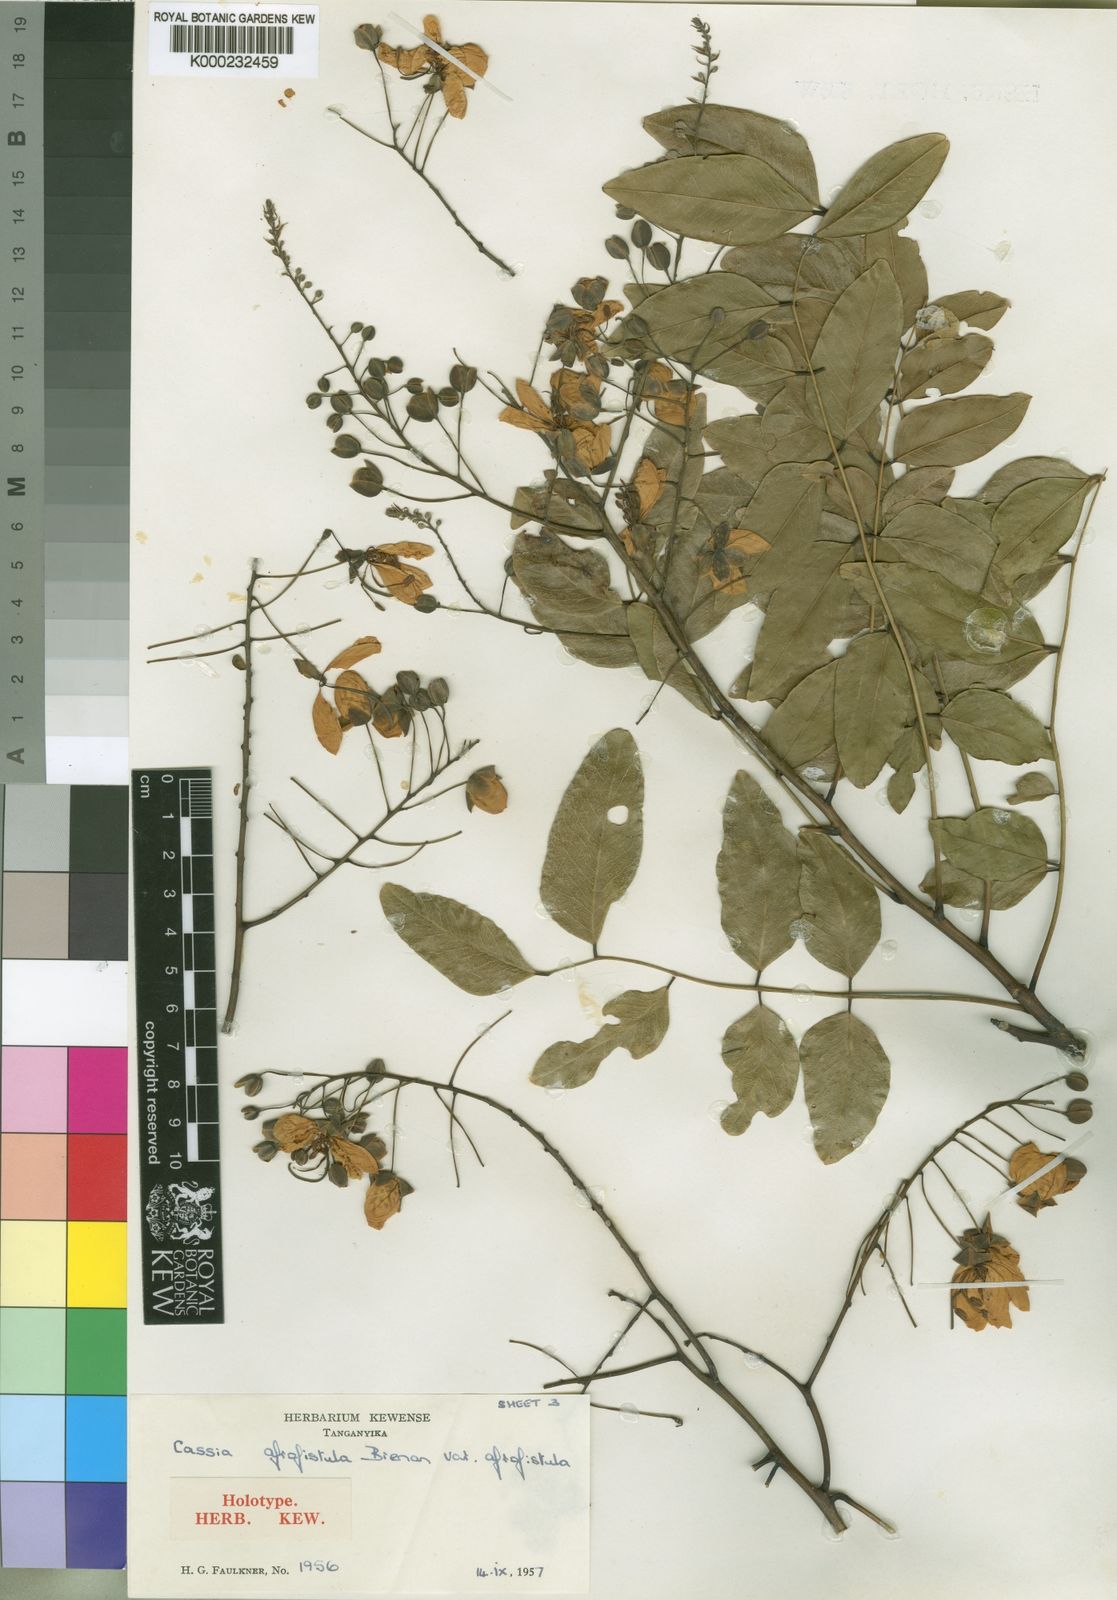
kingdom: Plantae
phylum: Tracheophyta
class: Magnoliopsida
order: Fabales
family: Fabaceae
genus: Cassia
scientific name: Cassia afrofistula
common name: Kenyan shower
